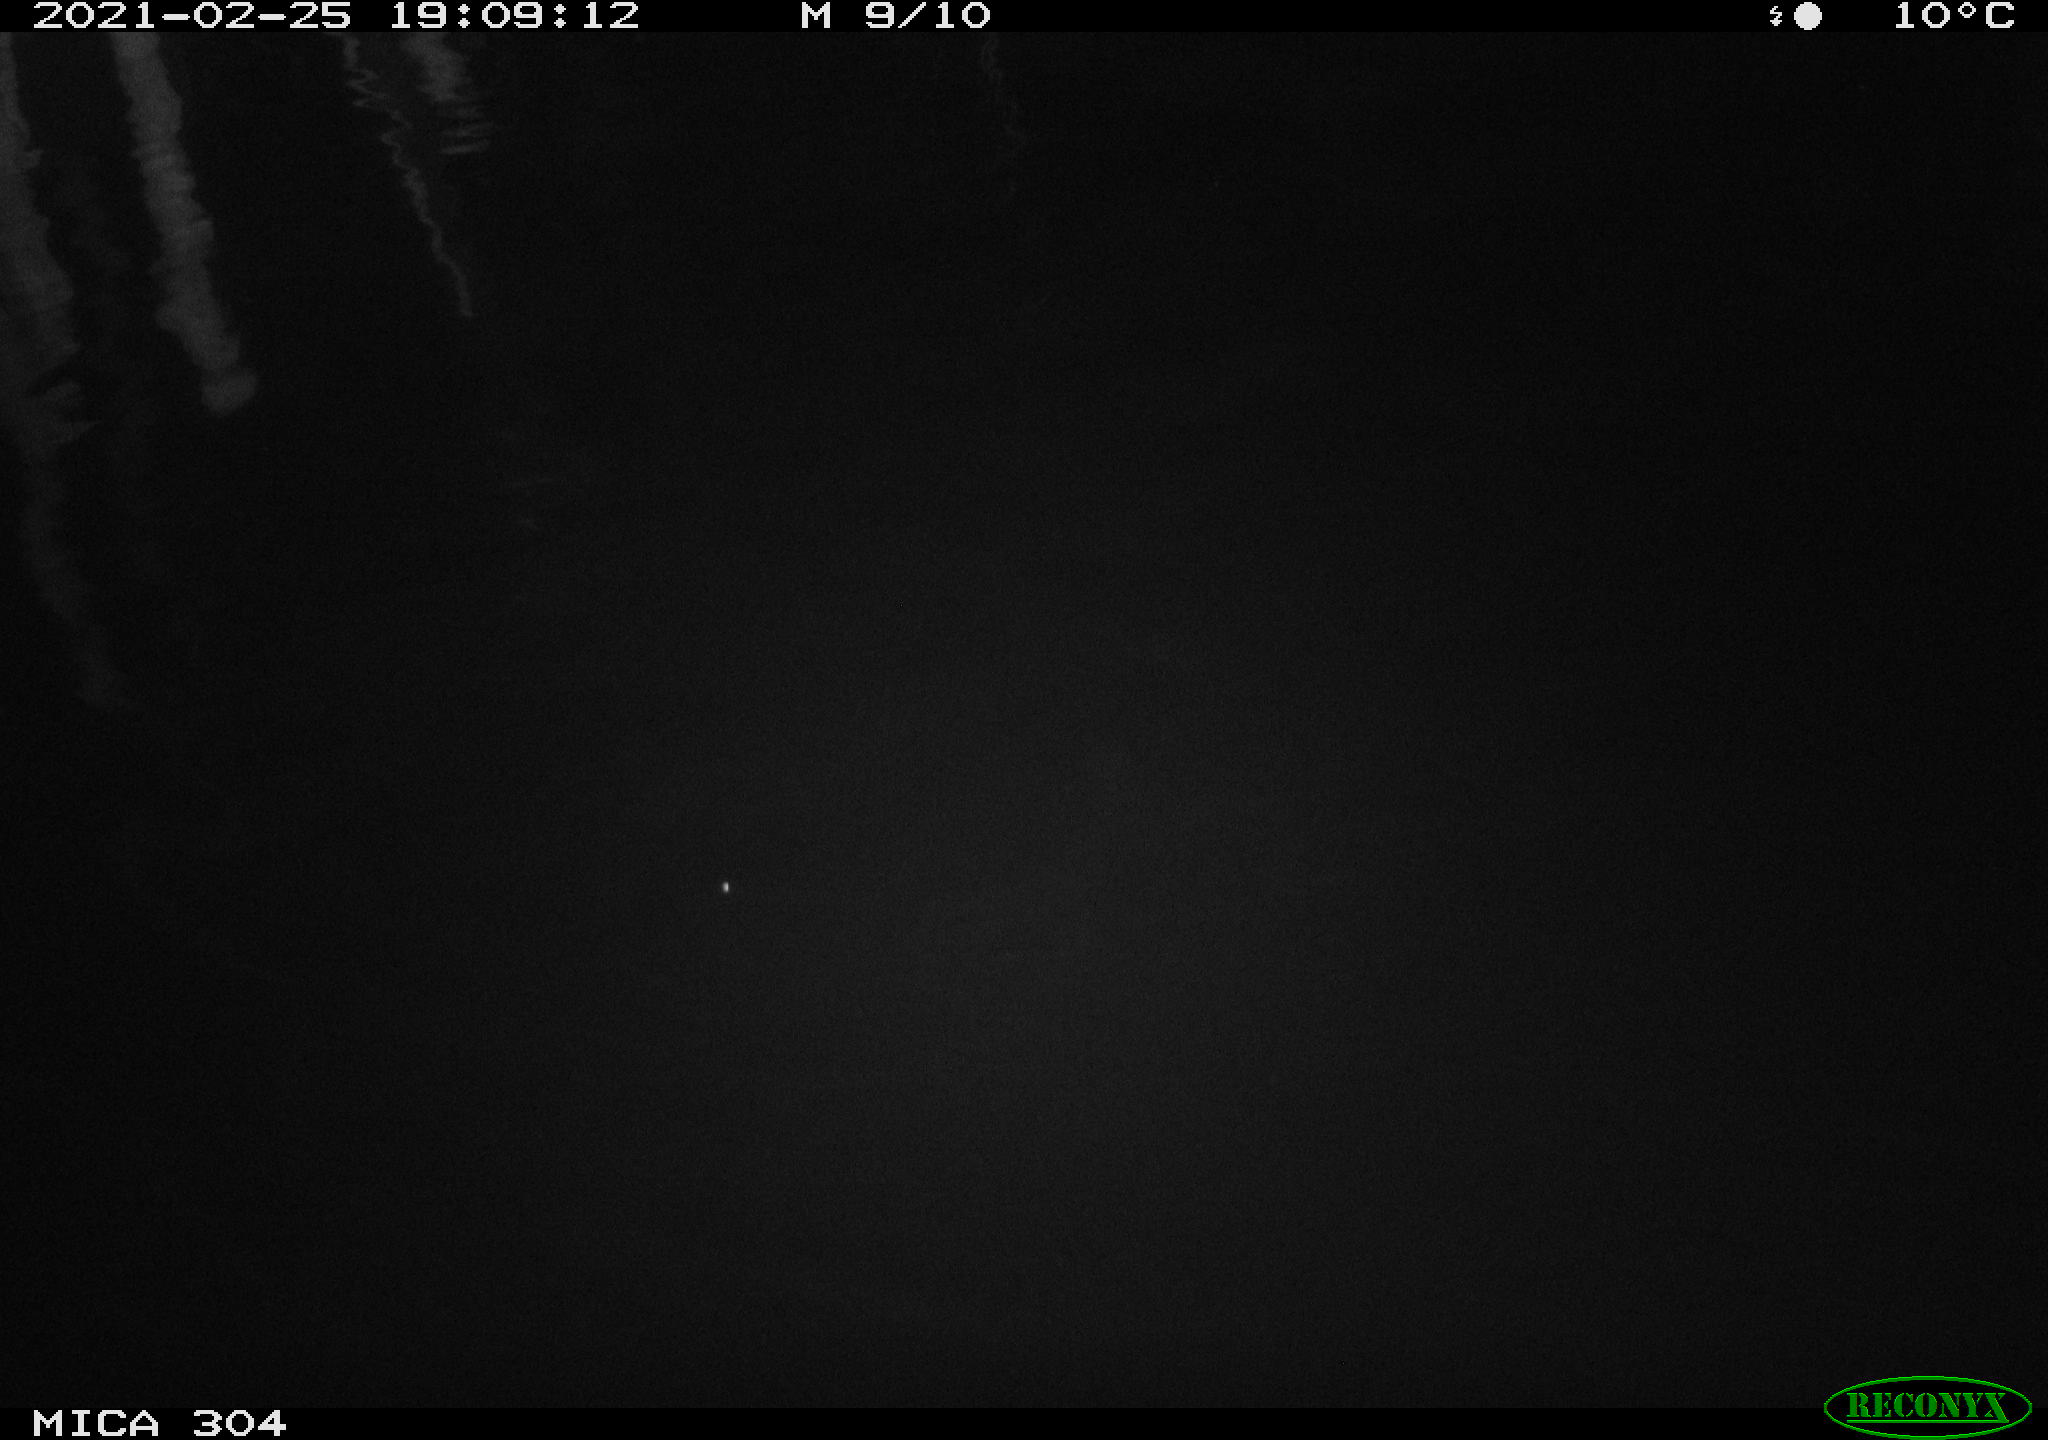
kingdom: Animalia
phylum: Chordata
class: Aves
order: Anseriformes
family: Anatidae
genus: Anas
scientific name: Anas platyrhynchos
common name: Mallard
